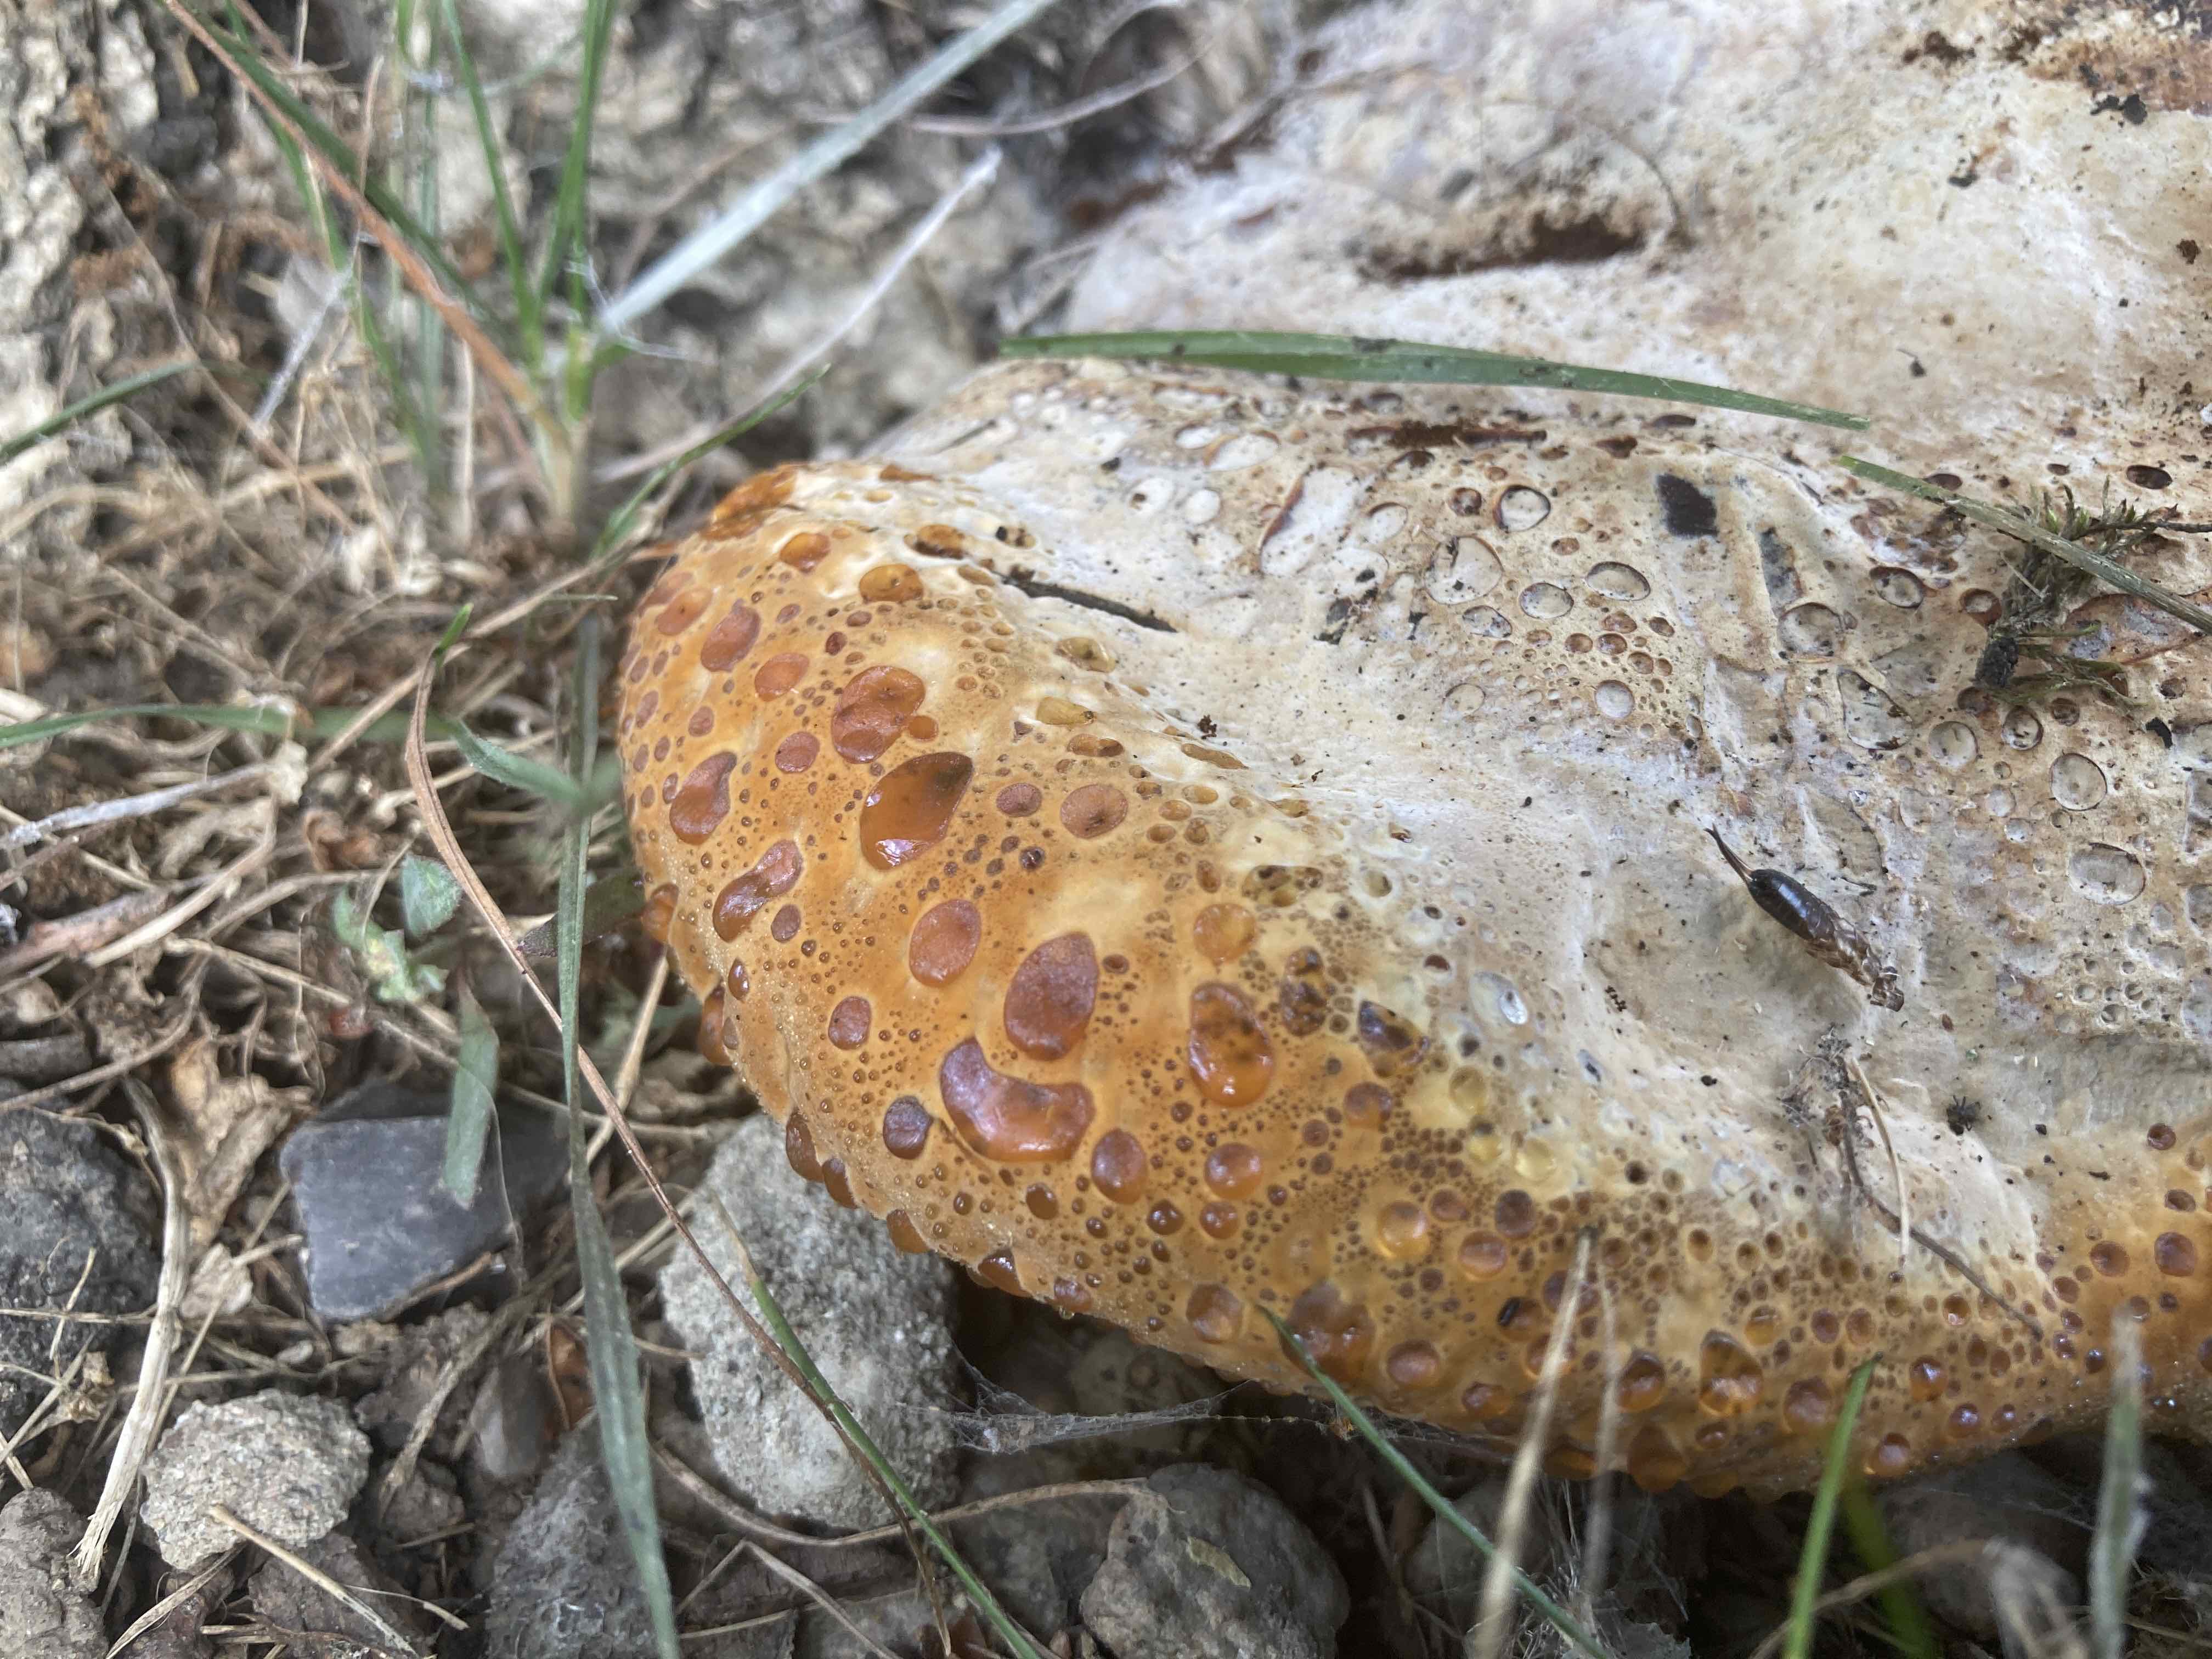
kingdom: Fungi
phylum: Basidiomycota
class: Agaricomycetes
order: Hymenochaetales
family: Hymenochaetaceae
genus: Pseudoinonotus
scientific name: Pseudoinonotus dryadeus
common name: ege-spejlporesvamp
